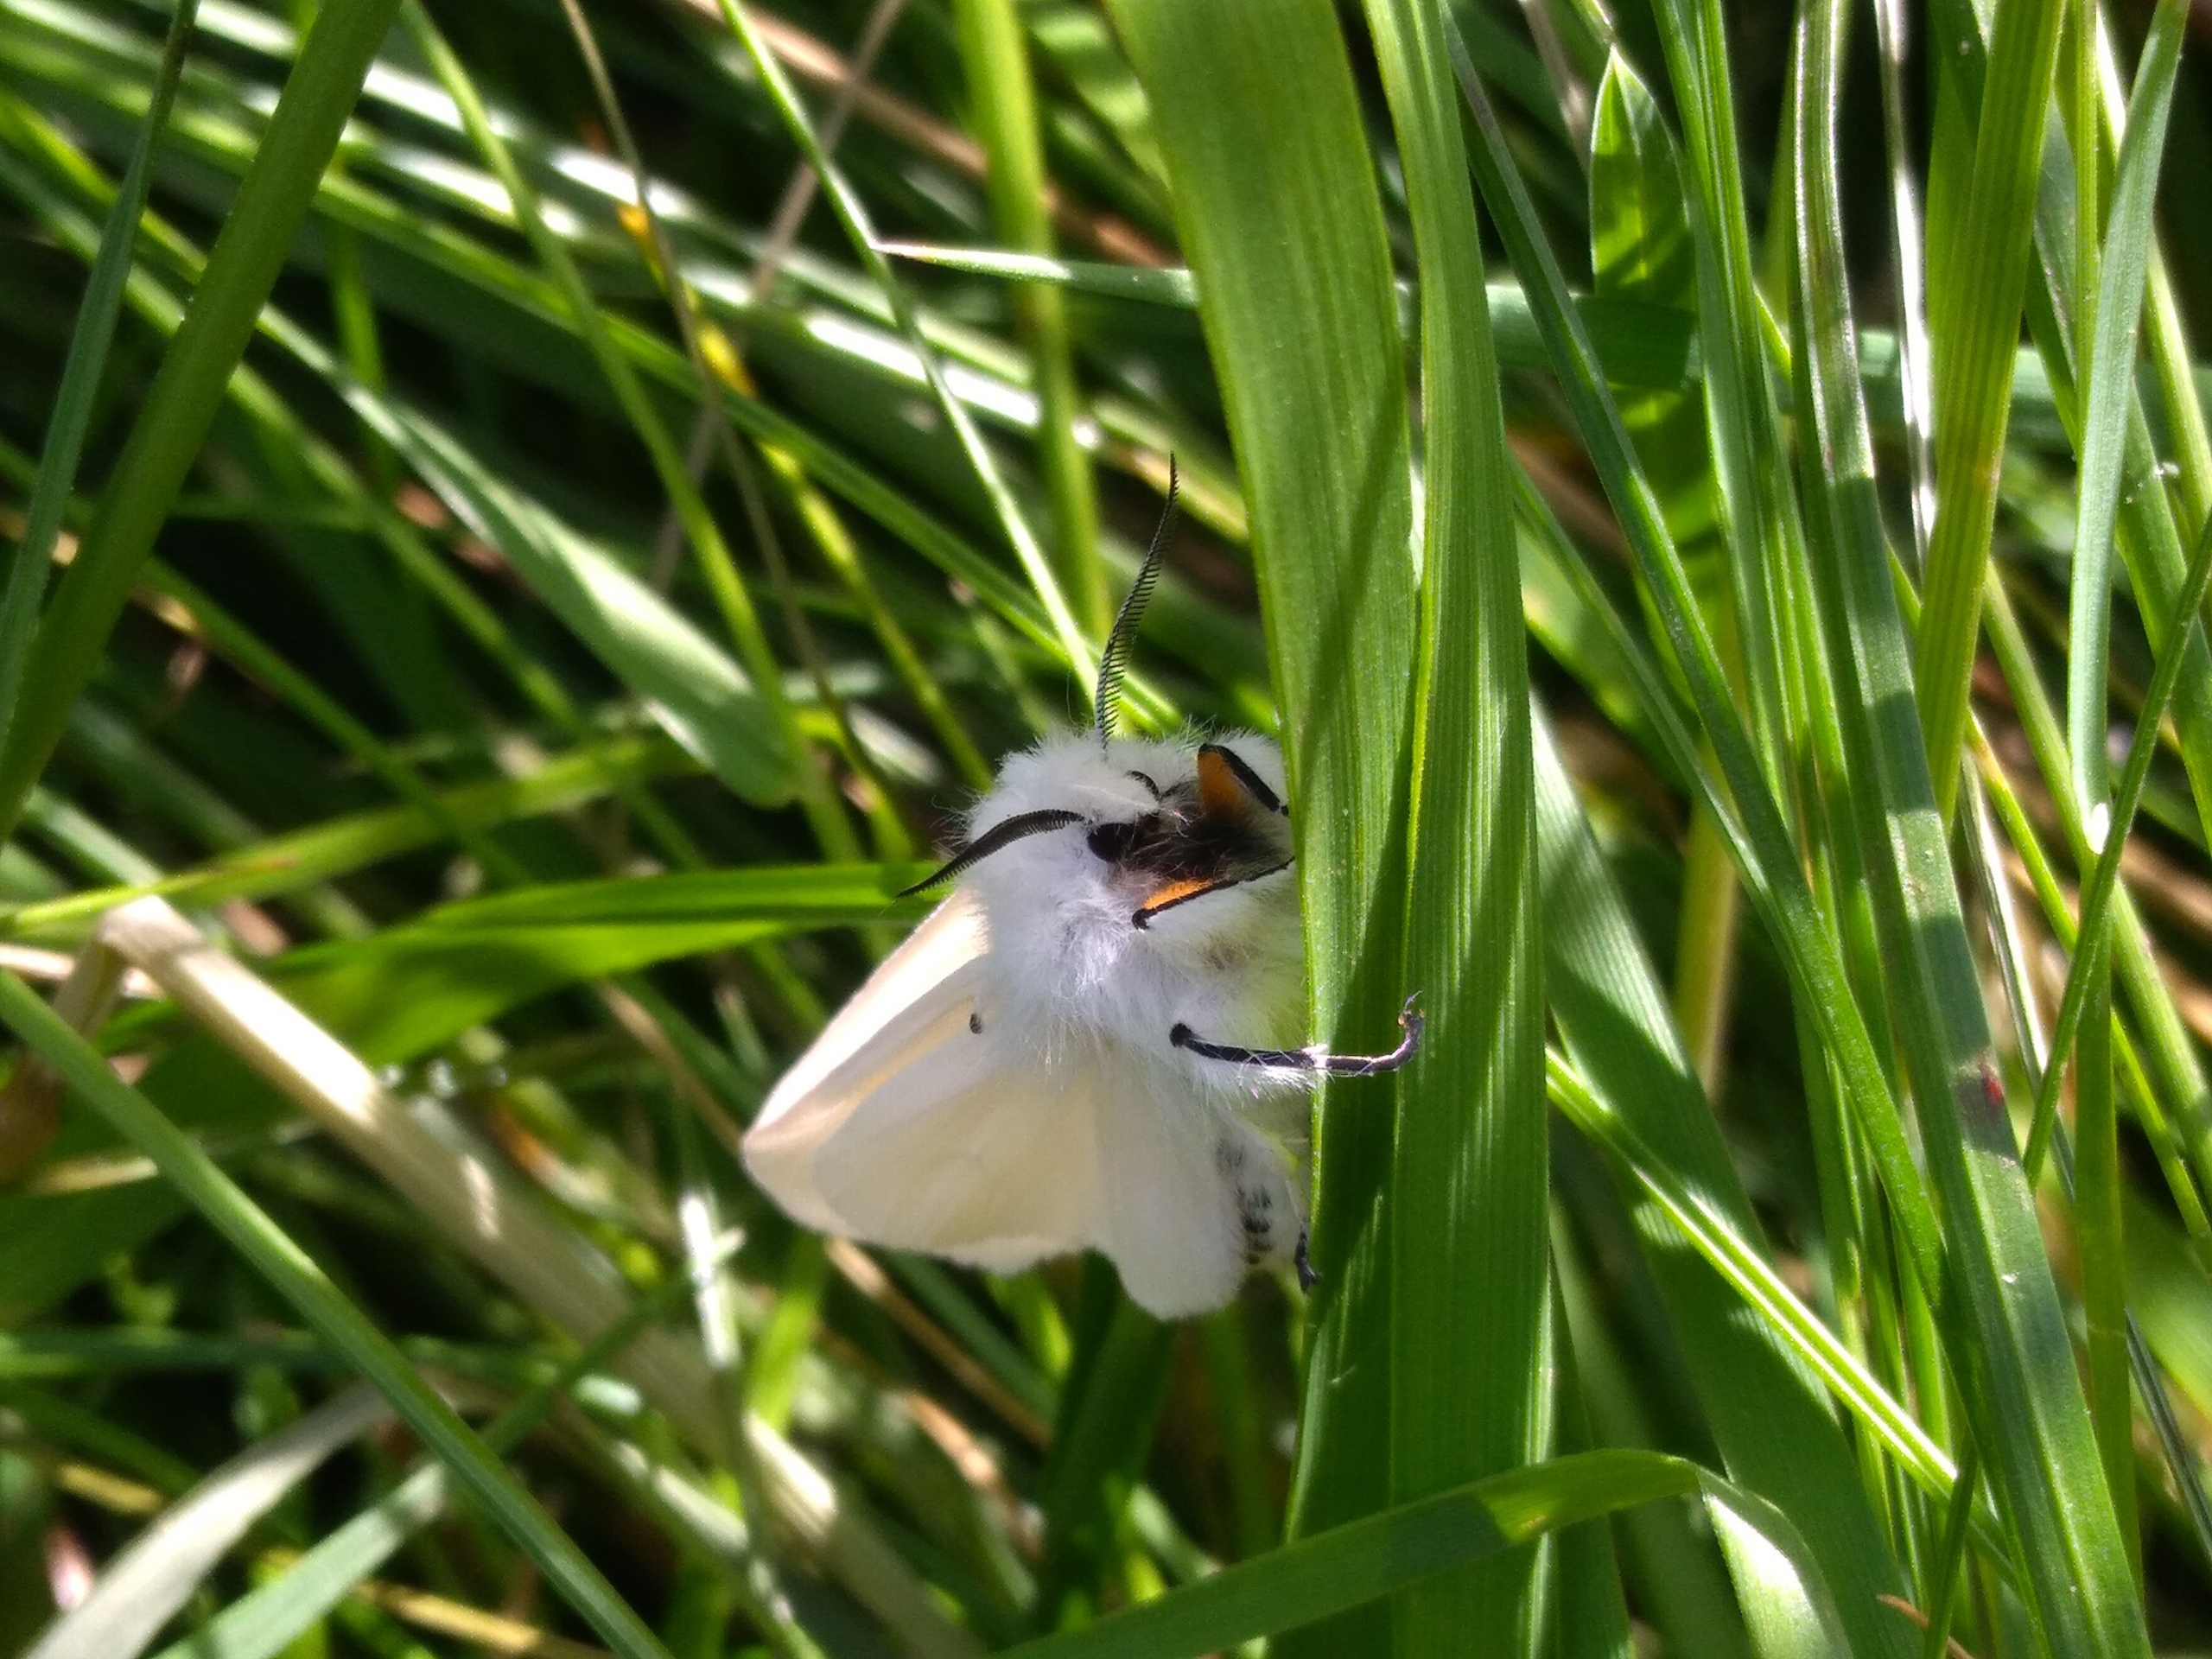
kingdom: Animalia
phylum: Arthropoda
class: Insecta
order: Lepidoptera
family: Erebidae
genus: Spilosoma
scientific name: Spilosoma urticae
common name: Hvid tigerspinder
